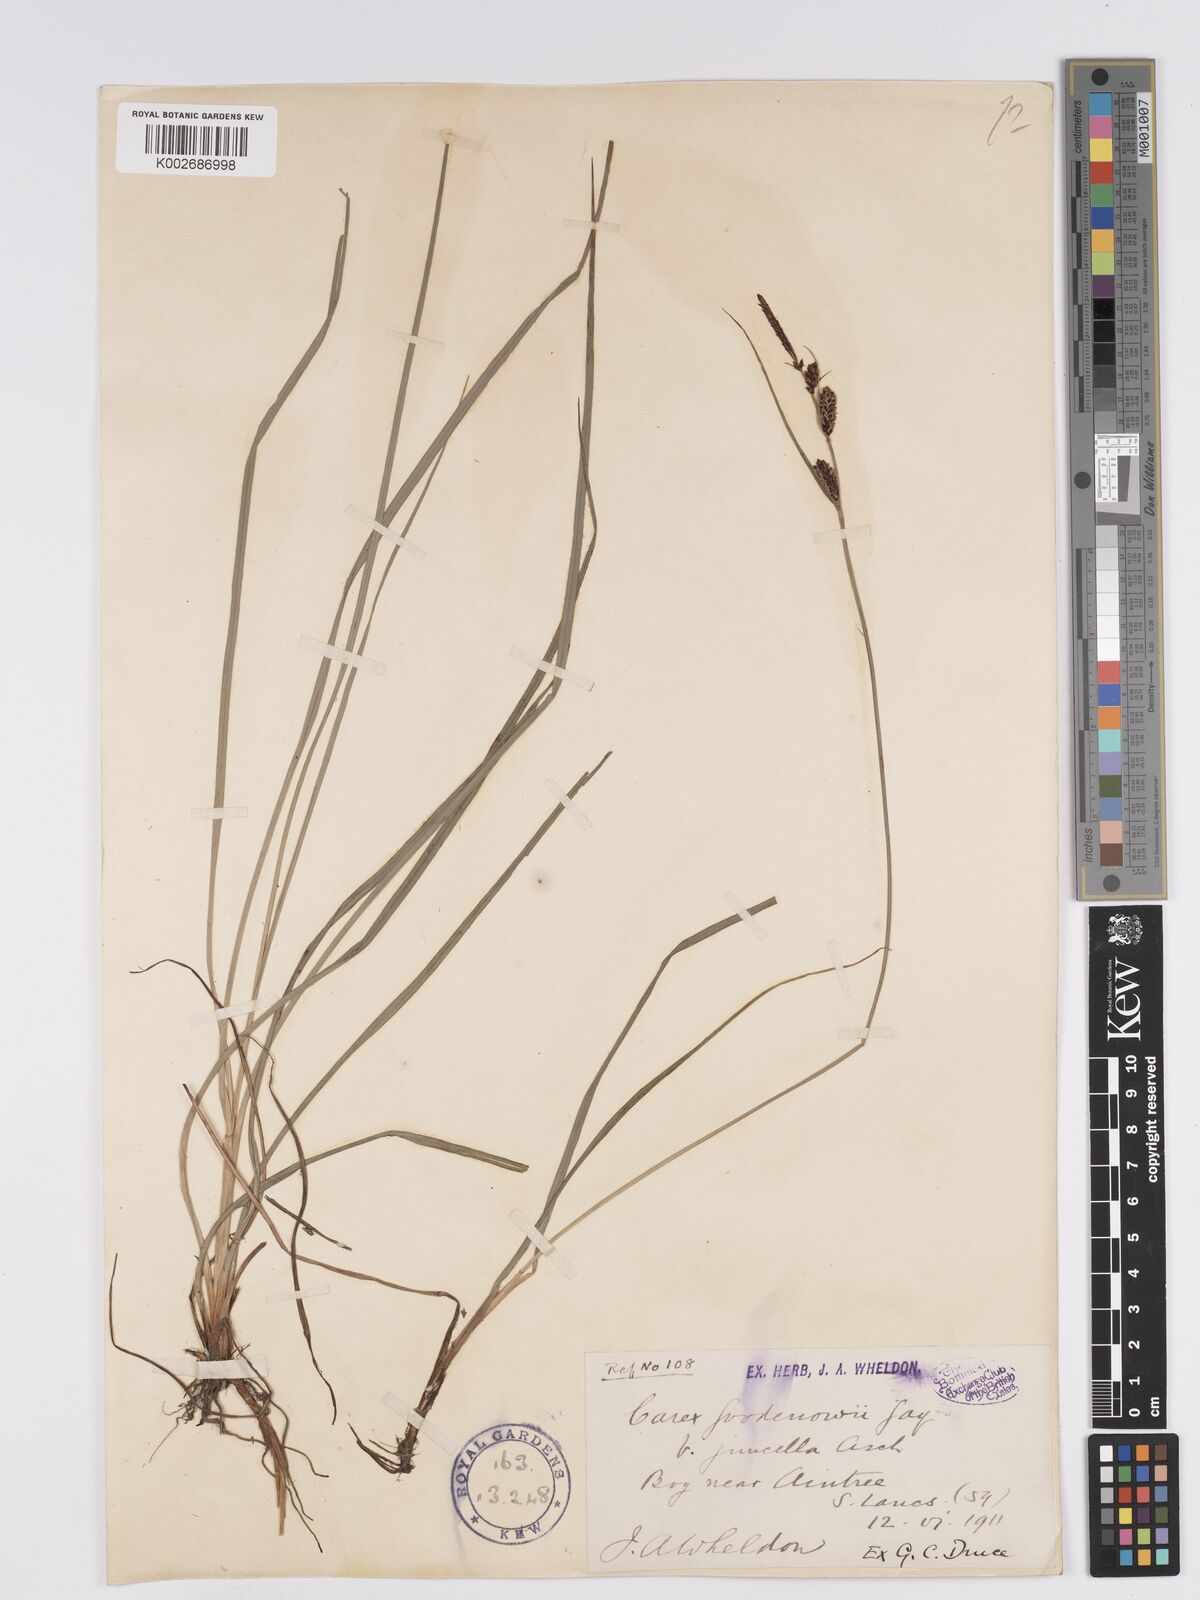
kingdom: Plantae
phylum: Tracheophyta
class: Liliopsida
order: Poales
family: Cyperaceae
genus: Carex
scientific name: Carex nigra
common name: Common sedge
